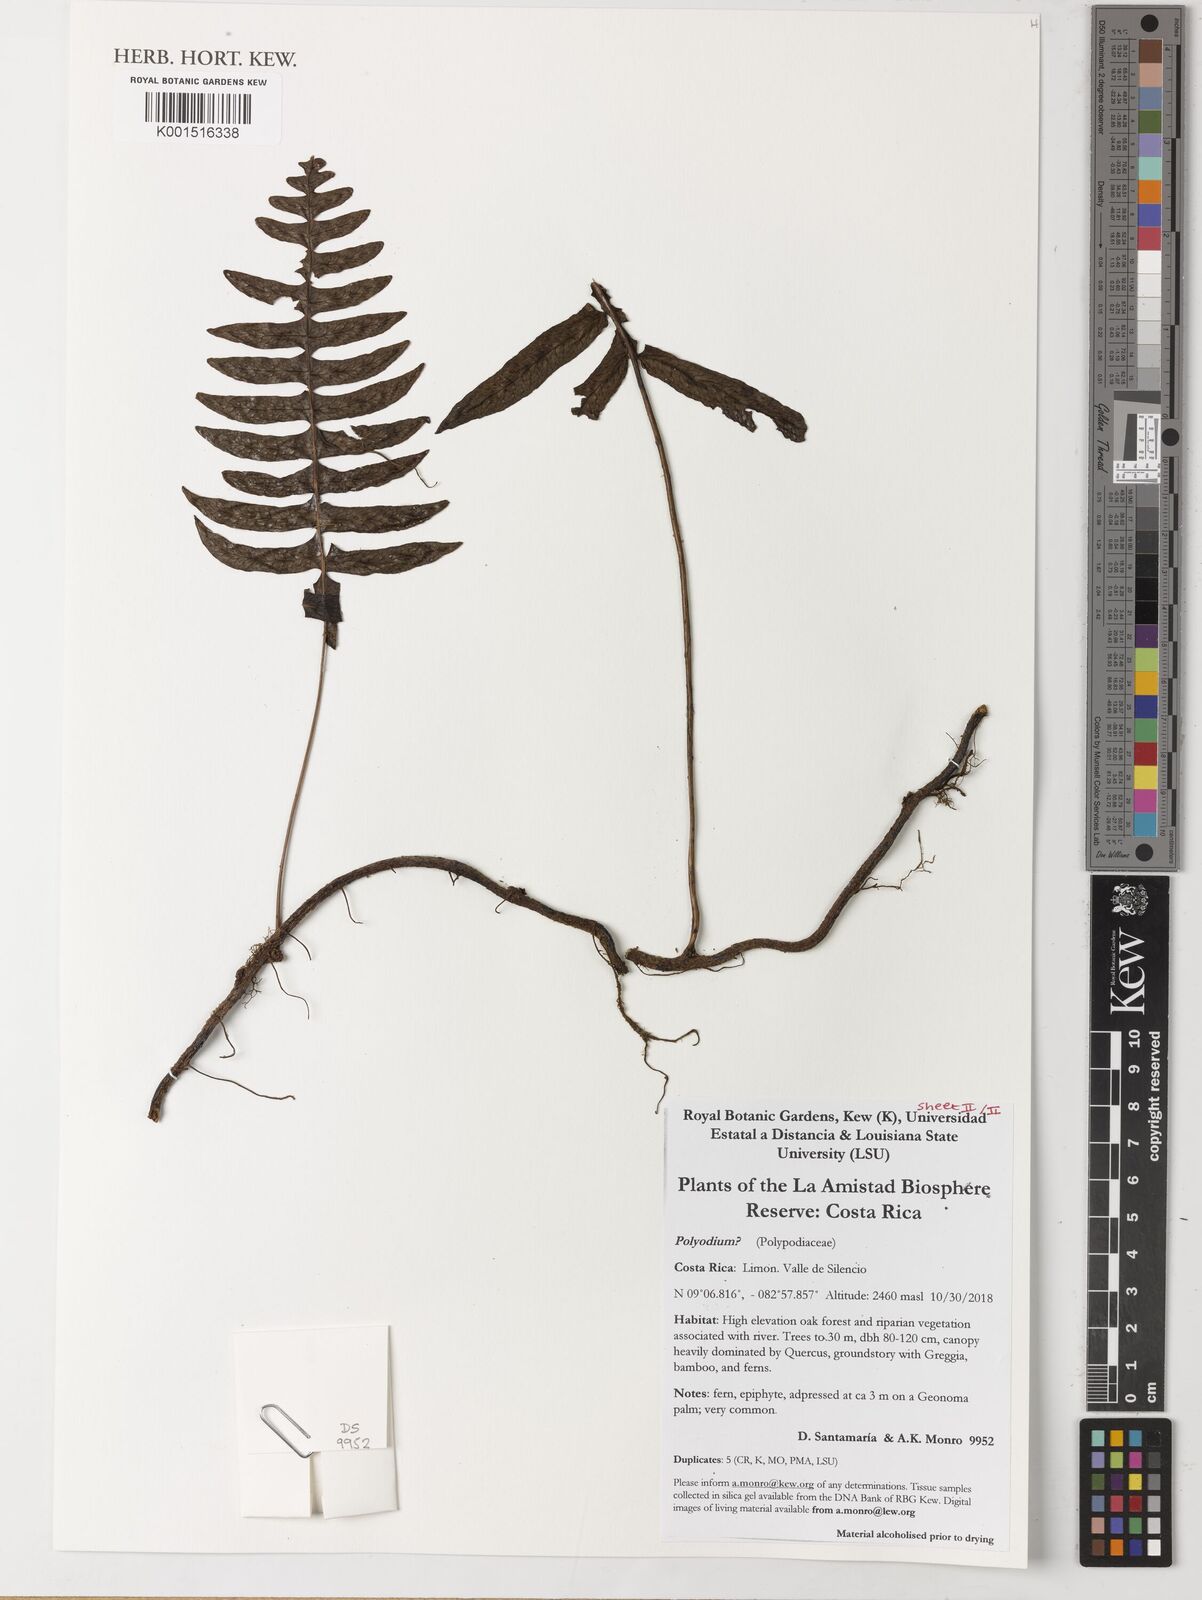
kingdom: Plantae
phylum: Tracheophyta
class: Polypodiopsida
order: Polypodiales
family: Polypodiaceae
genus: Polypodium
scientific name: Polypodium
